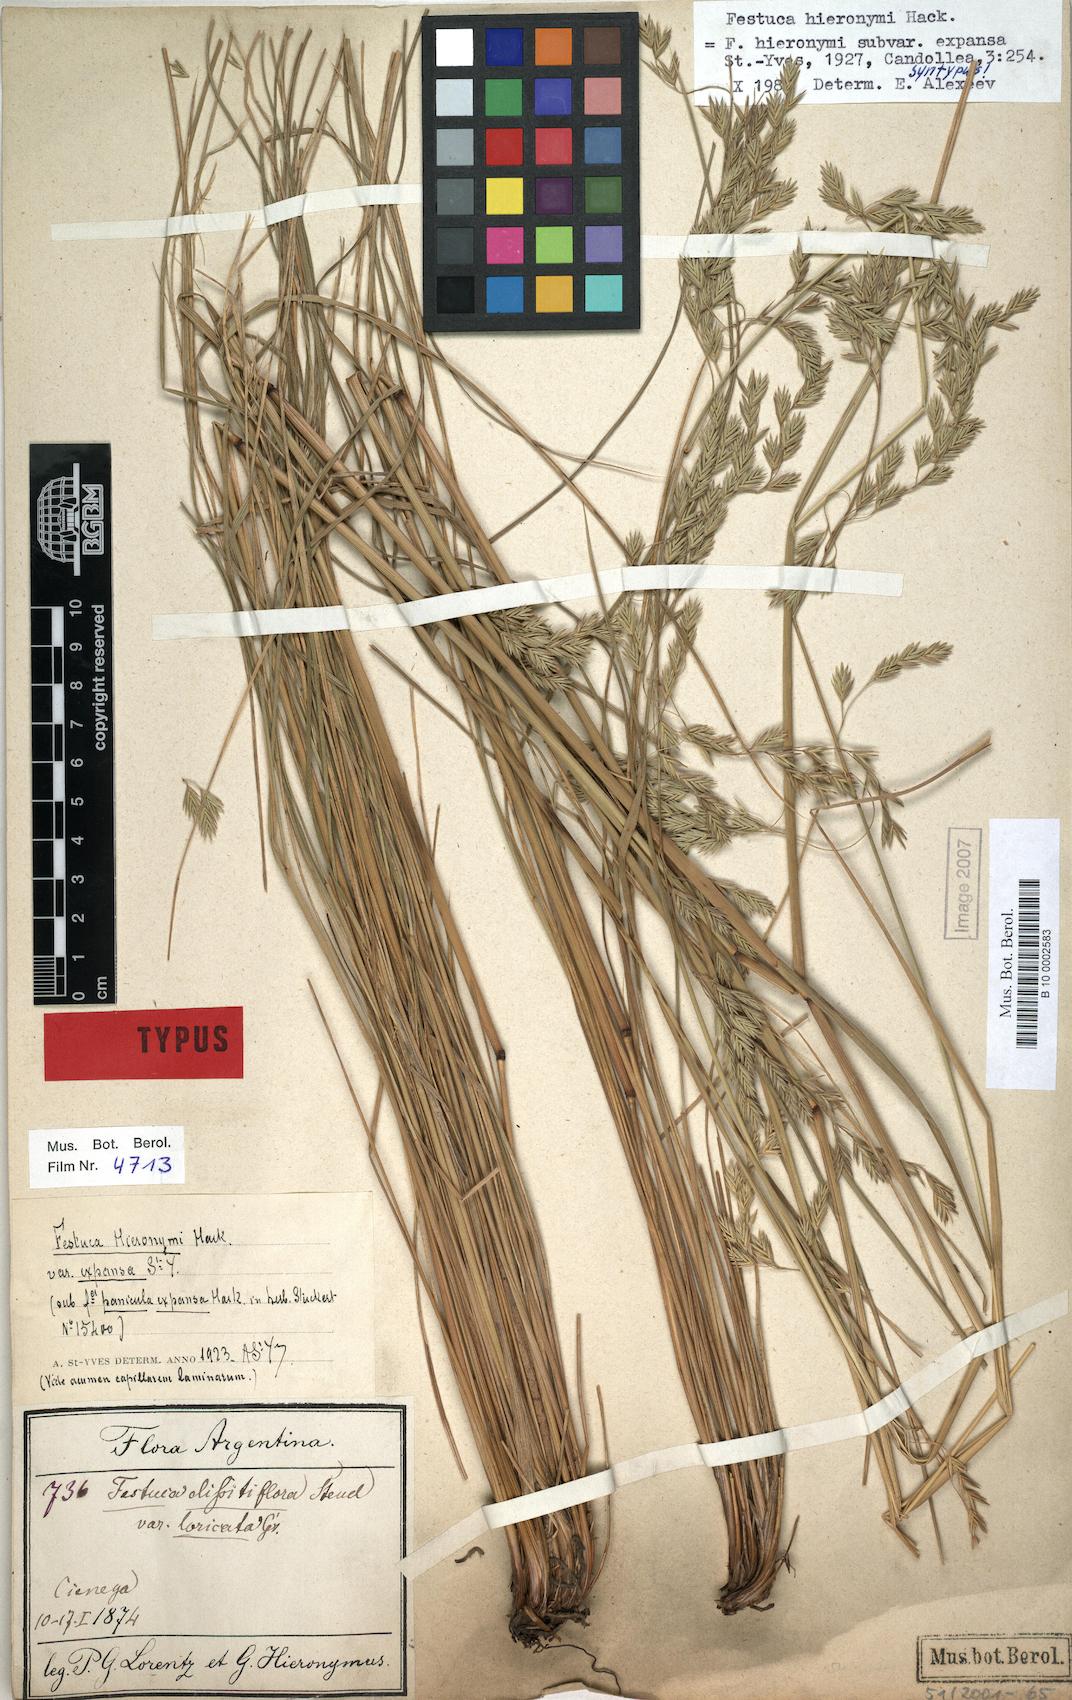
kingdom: Plantae
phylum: Tracheophyta
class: Liliopsida
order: Poales
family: Poaceae
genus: Festuca
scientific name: Festuca fiebrigii
